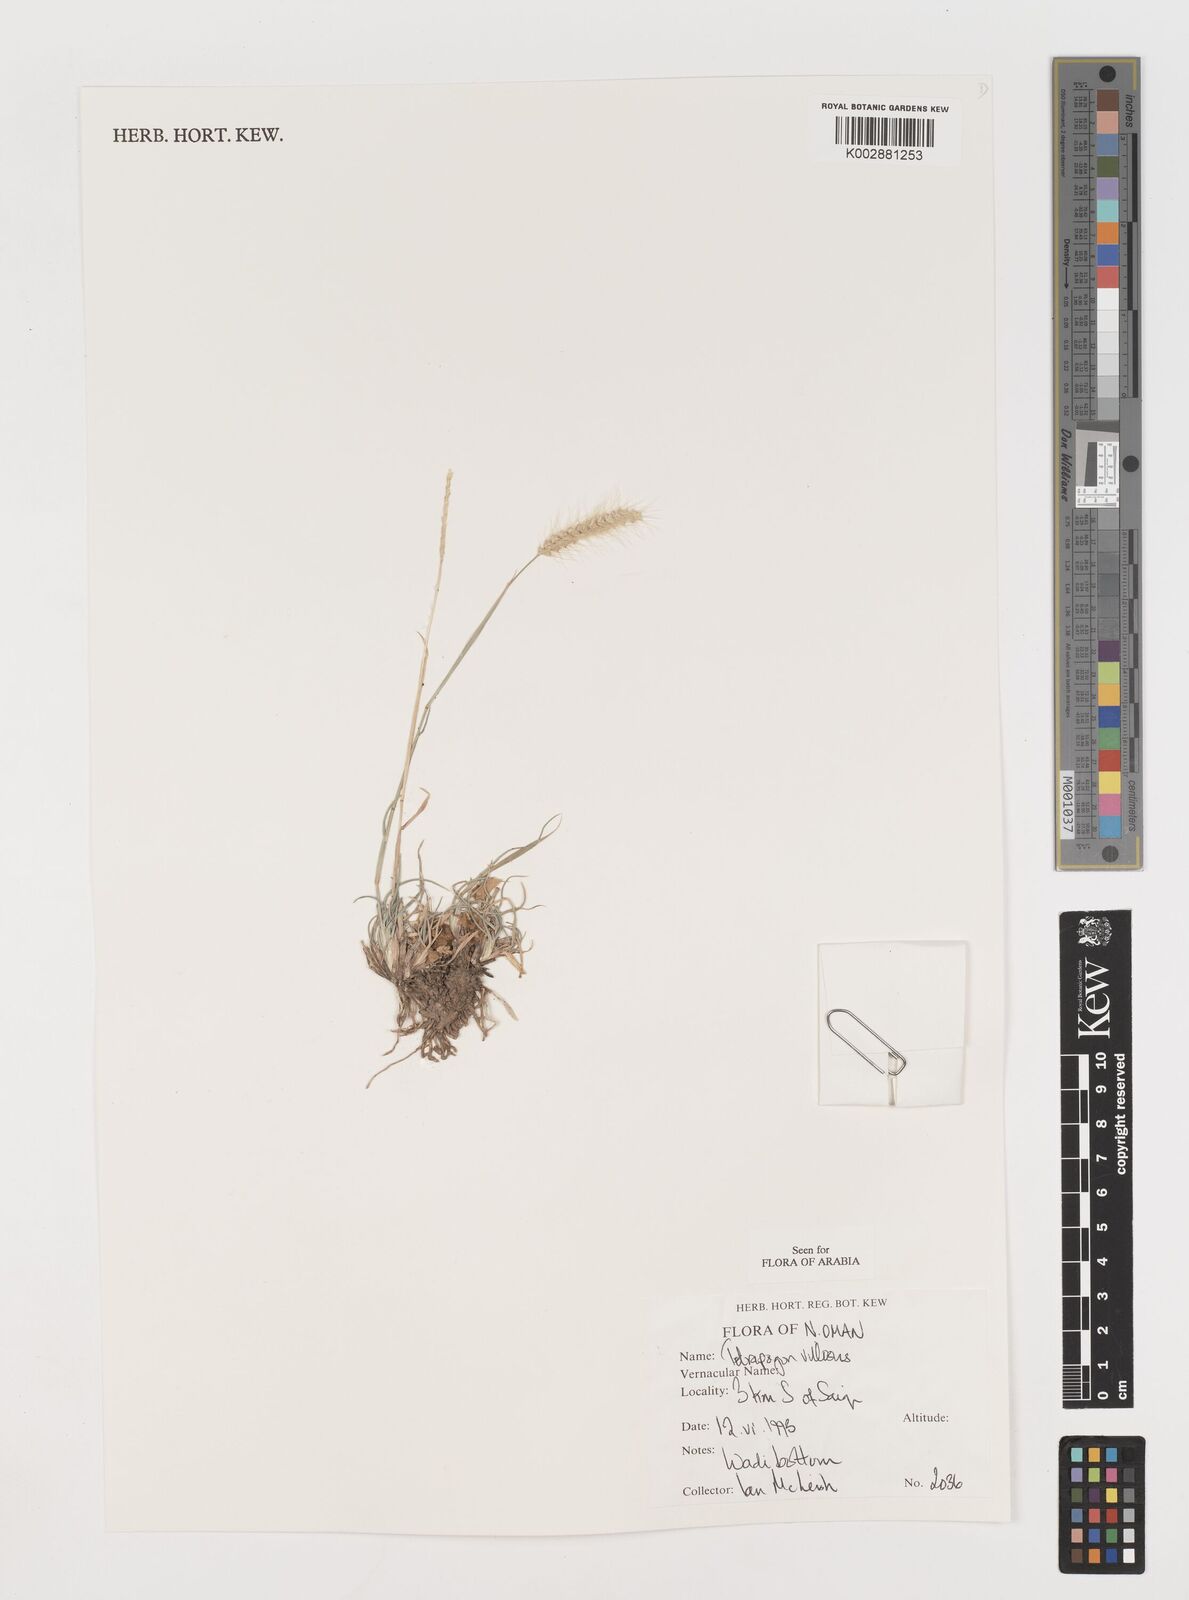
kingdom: Plantae
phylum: Tracheophyta
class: Liliopsida
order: Poales
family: Poaceae
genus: Tetrapogon
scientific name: Tetrapogon villosus
